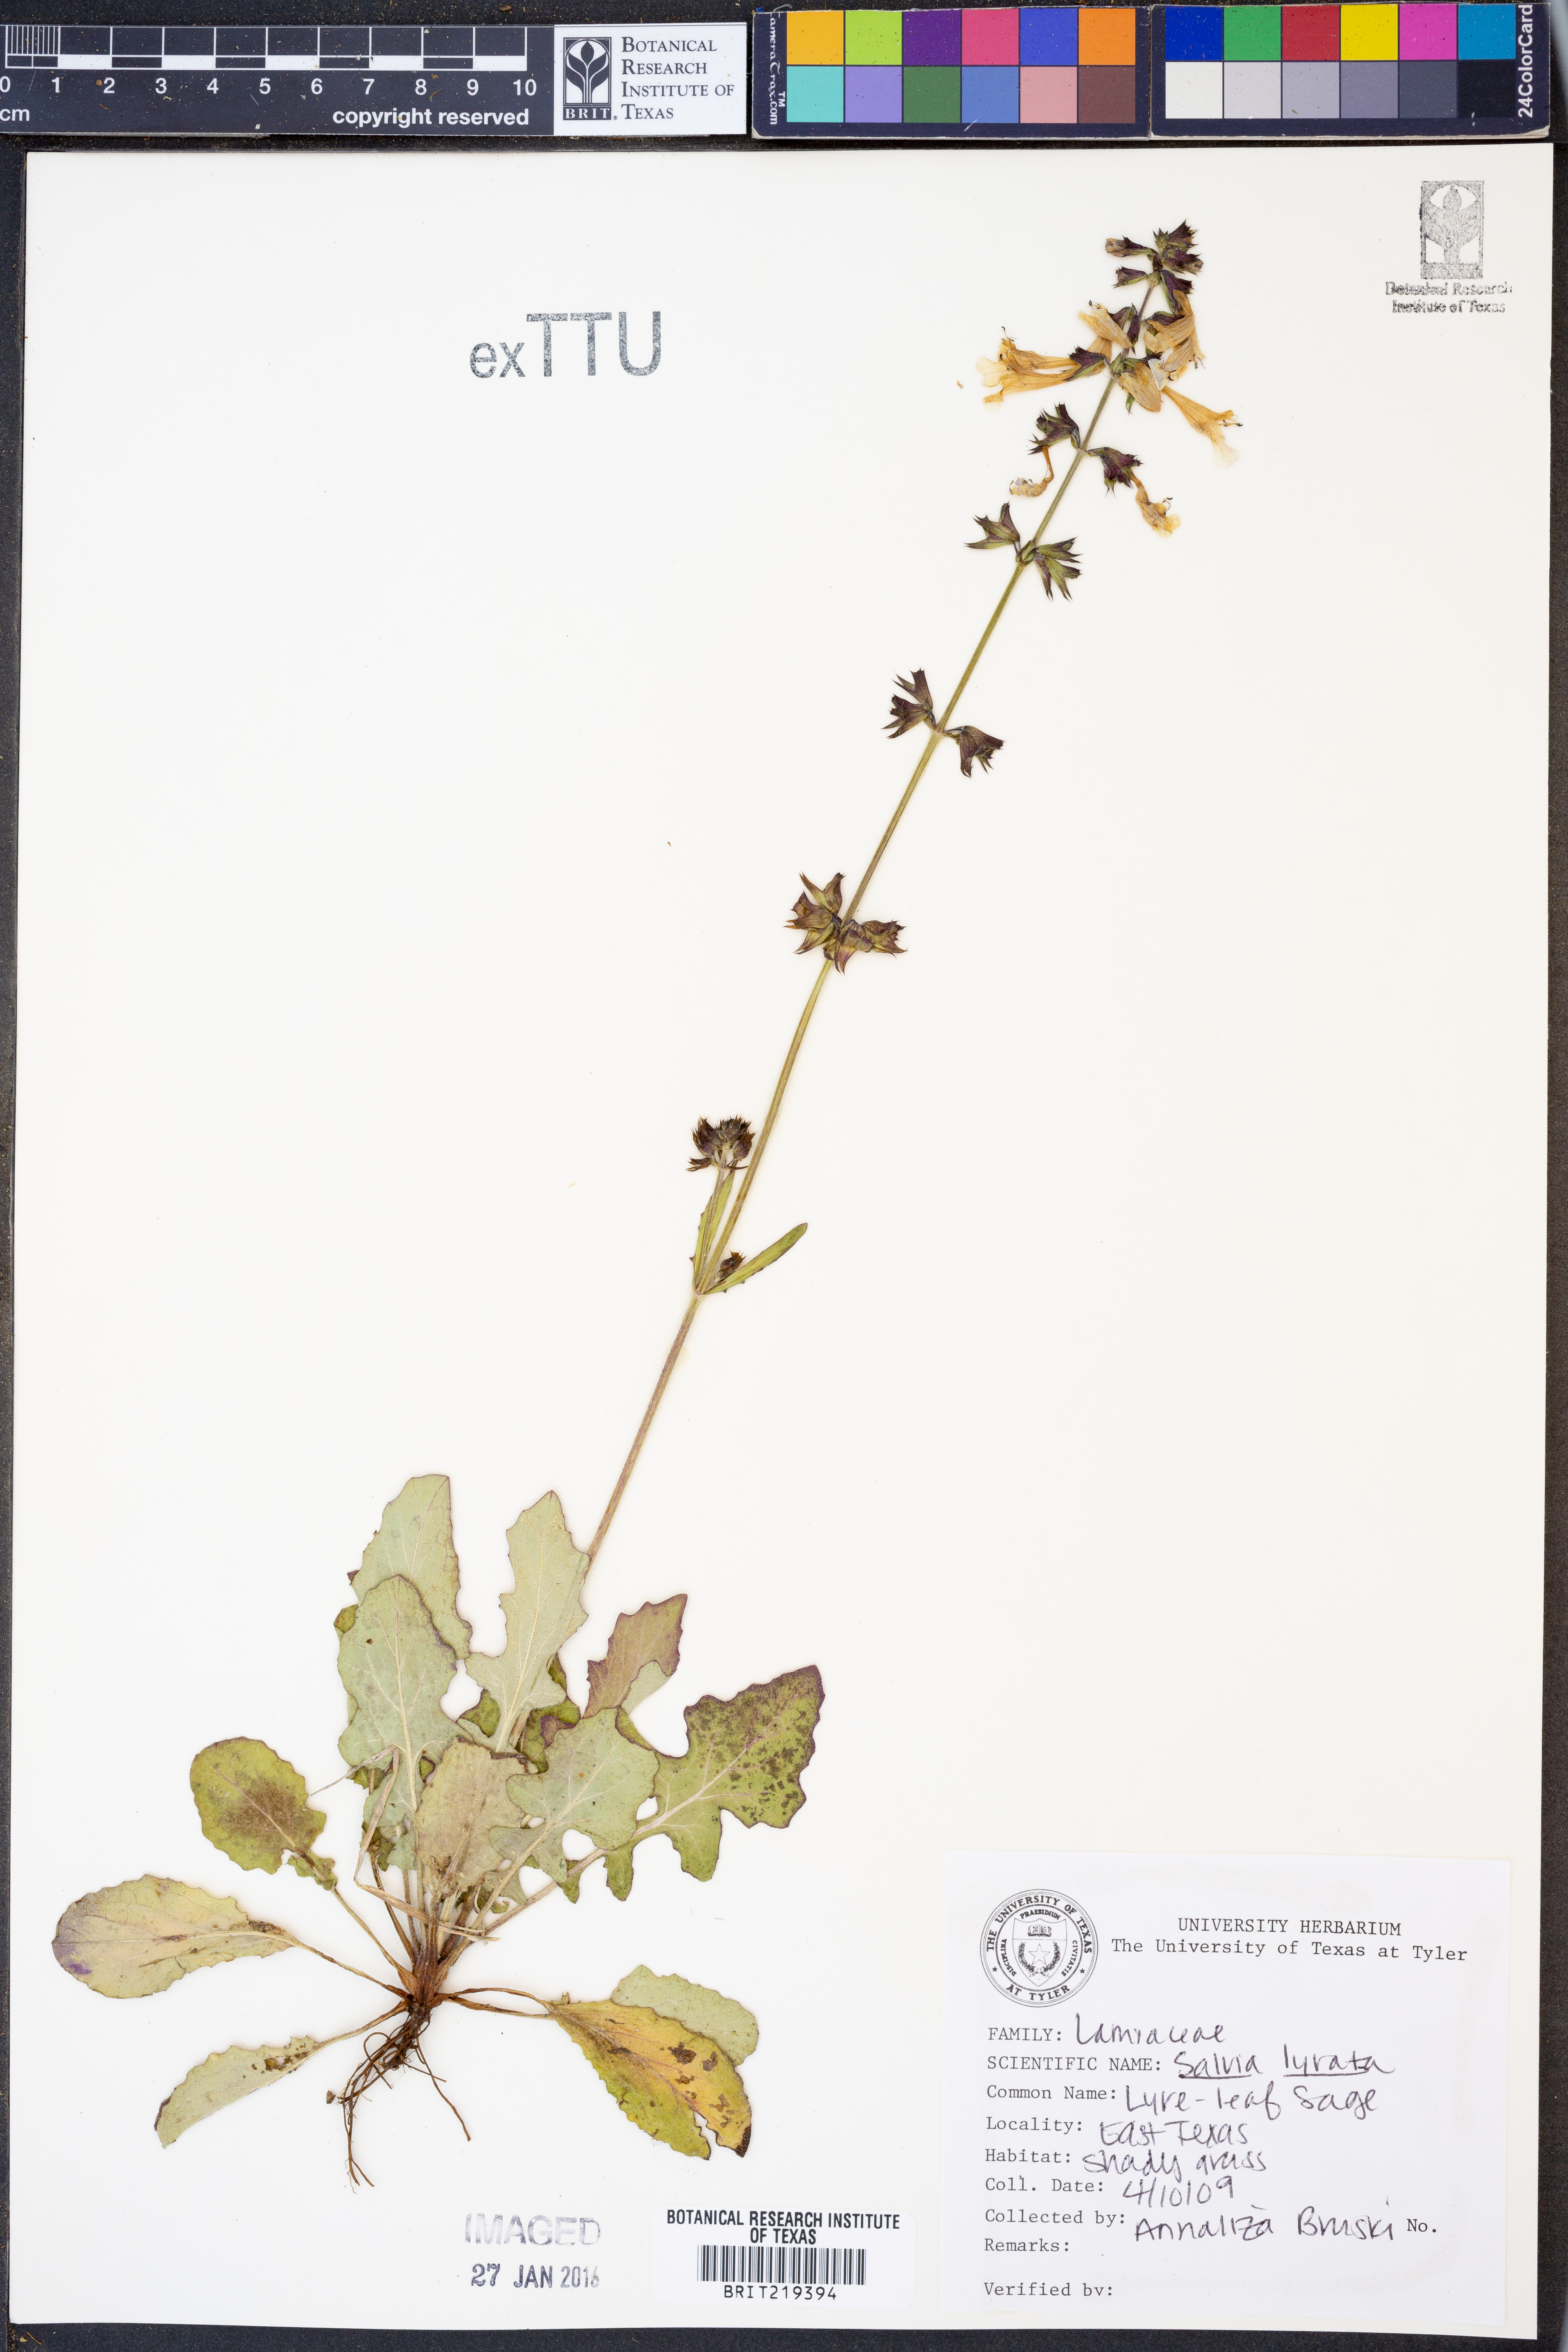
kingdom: Plantae
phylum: Tracheophyta
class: Magnoliopsida
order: Lamiales
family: Lamiaceae
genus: Salvia
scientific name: Salvia lyrata
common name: Cancerweed
